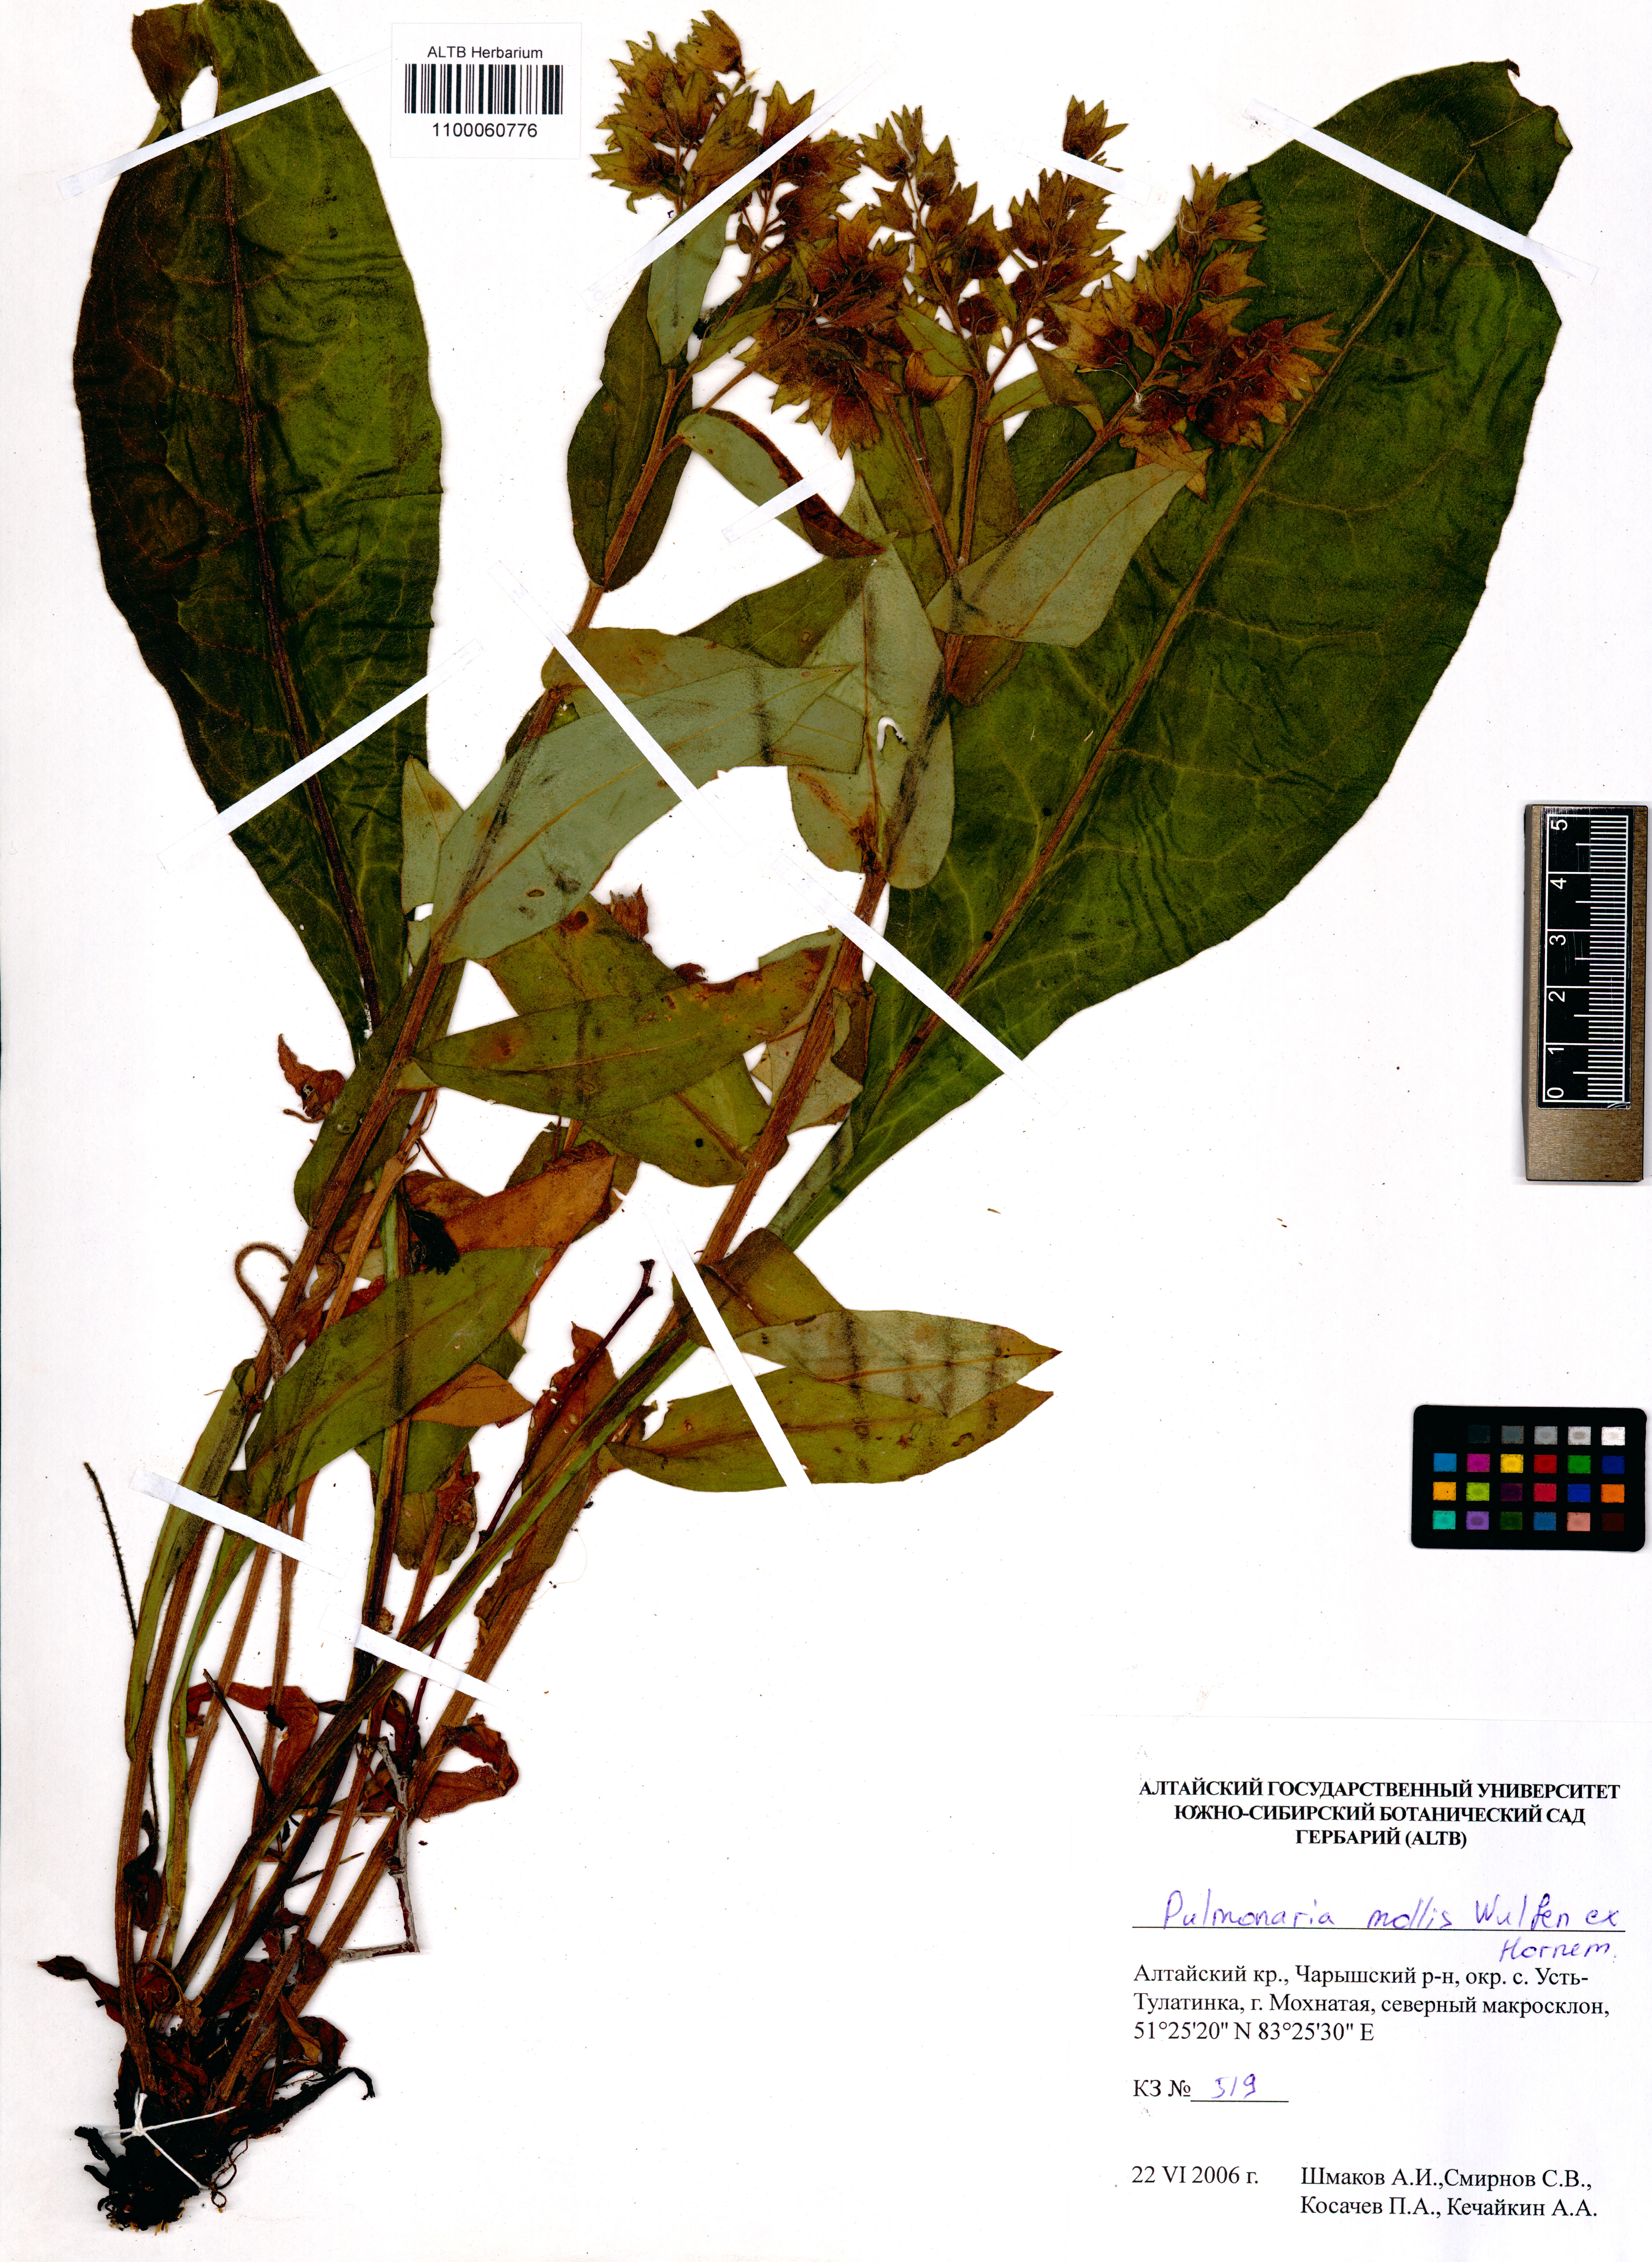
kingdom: Plantae
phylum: Tracheophyta
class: Magnoliopsida
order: Boraginales
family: Boraginaceae
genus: Pulmonaria
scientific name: Pulmonaria mollis
